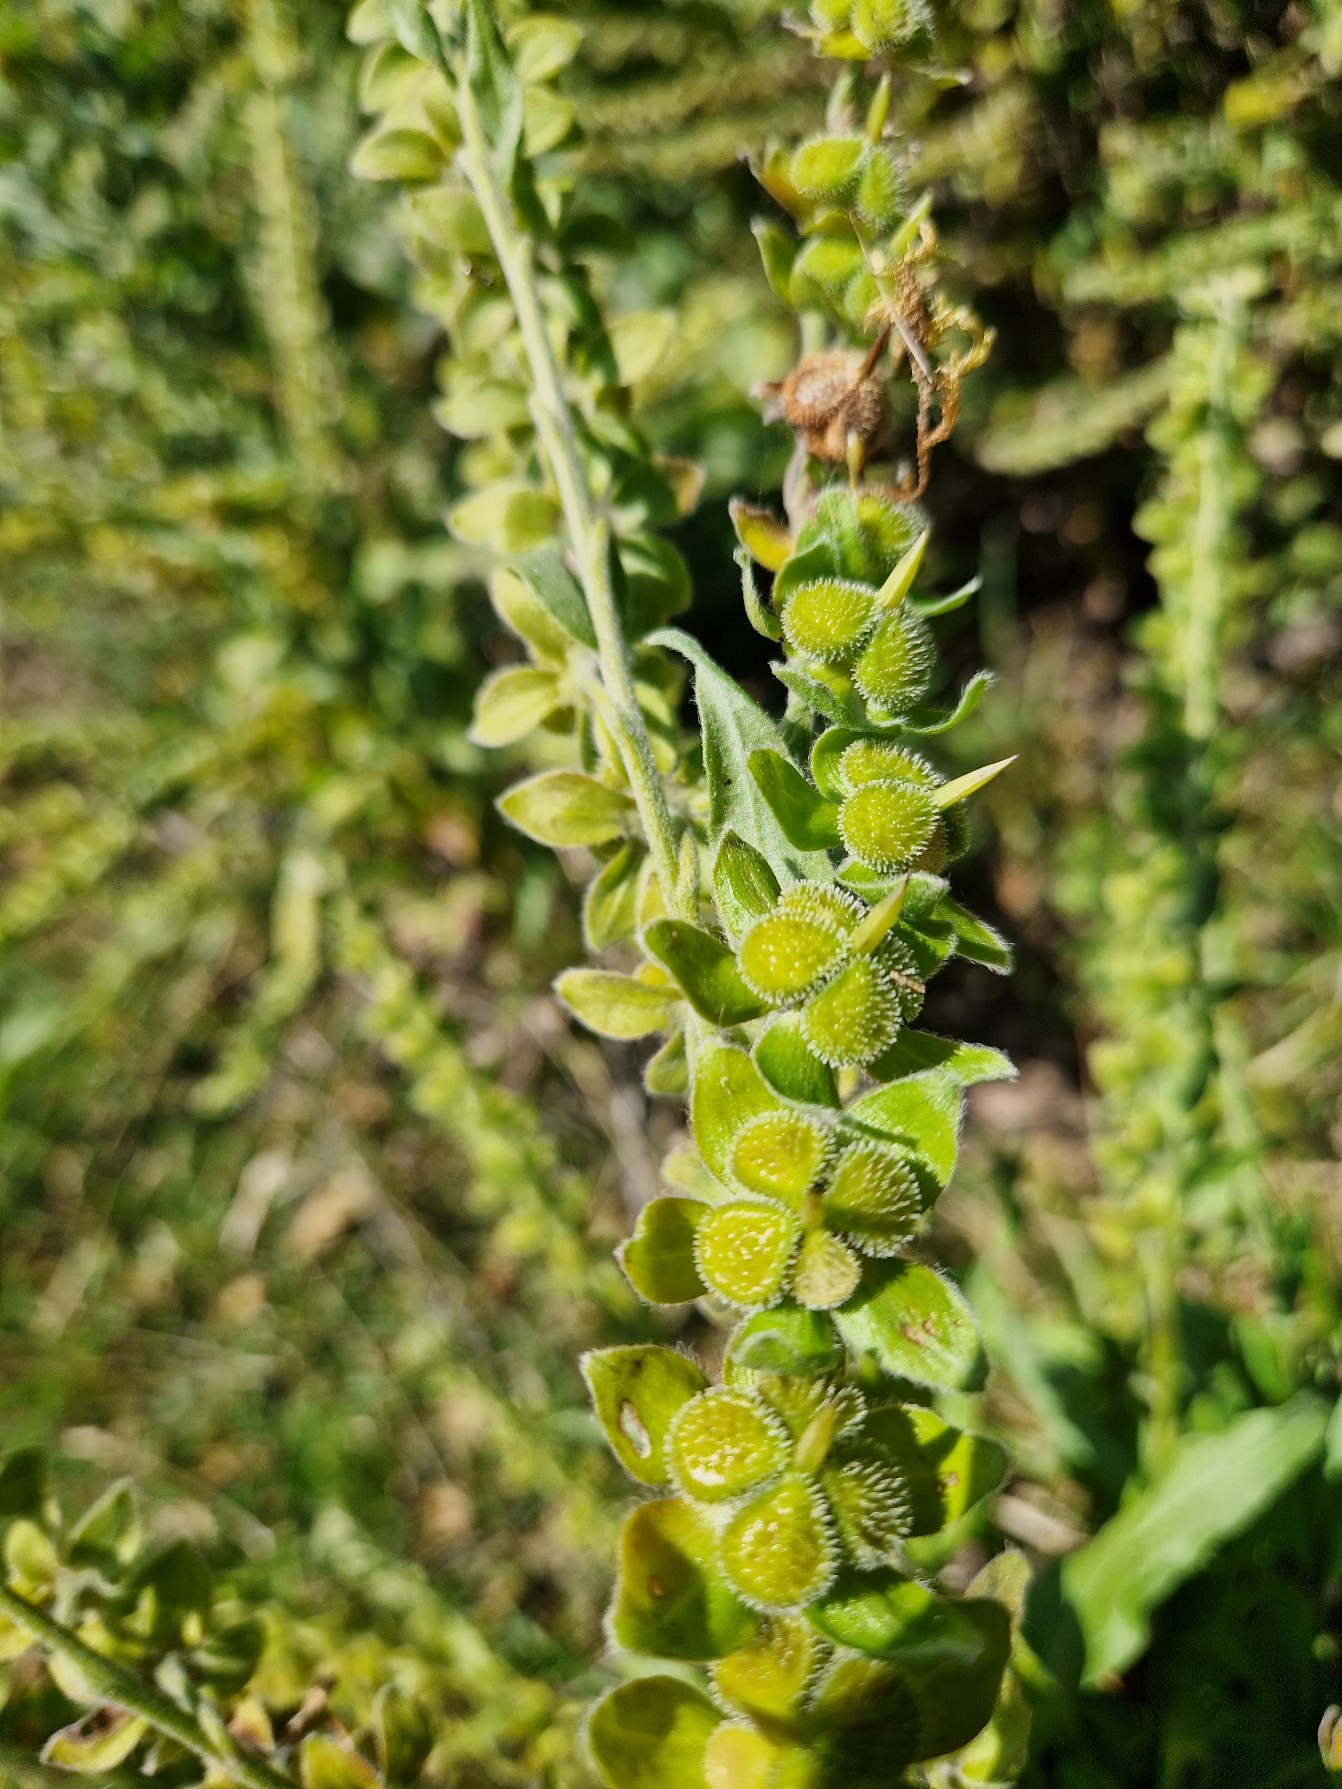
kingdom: Plantae
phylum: Tracheophyta
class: Magnoliopsida
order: Boraginales
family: Boraginaceae
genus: Cynoglossum
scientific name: Cynoglossum officinale
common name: Hundetunge
